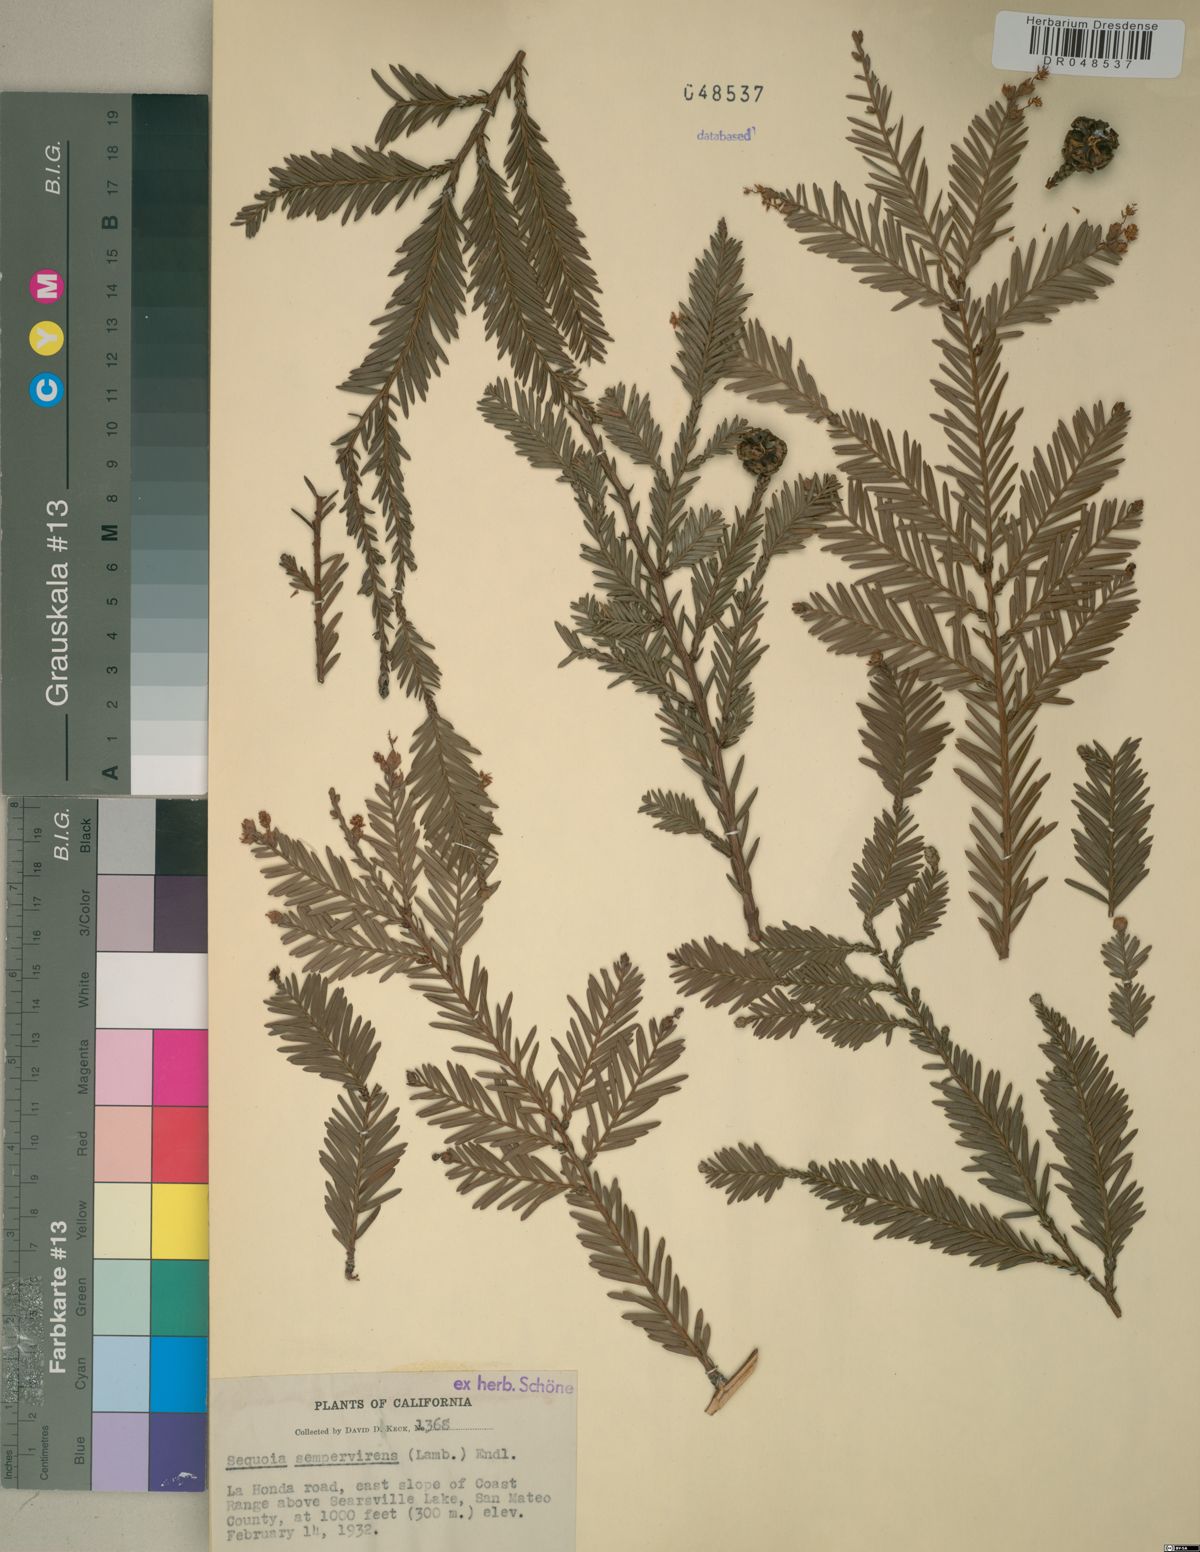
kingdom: Plantae
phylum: Tracheophyta
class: Pinopsida
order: Pinales
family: Cupressaceae
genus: Sequoia
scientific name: Sequoia sempervirens
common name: Coast redwood
